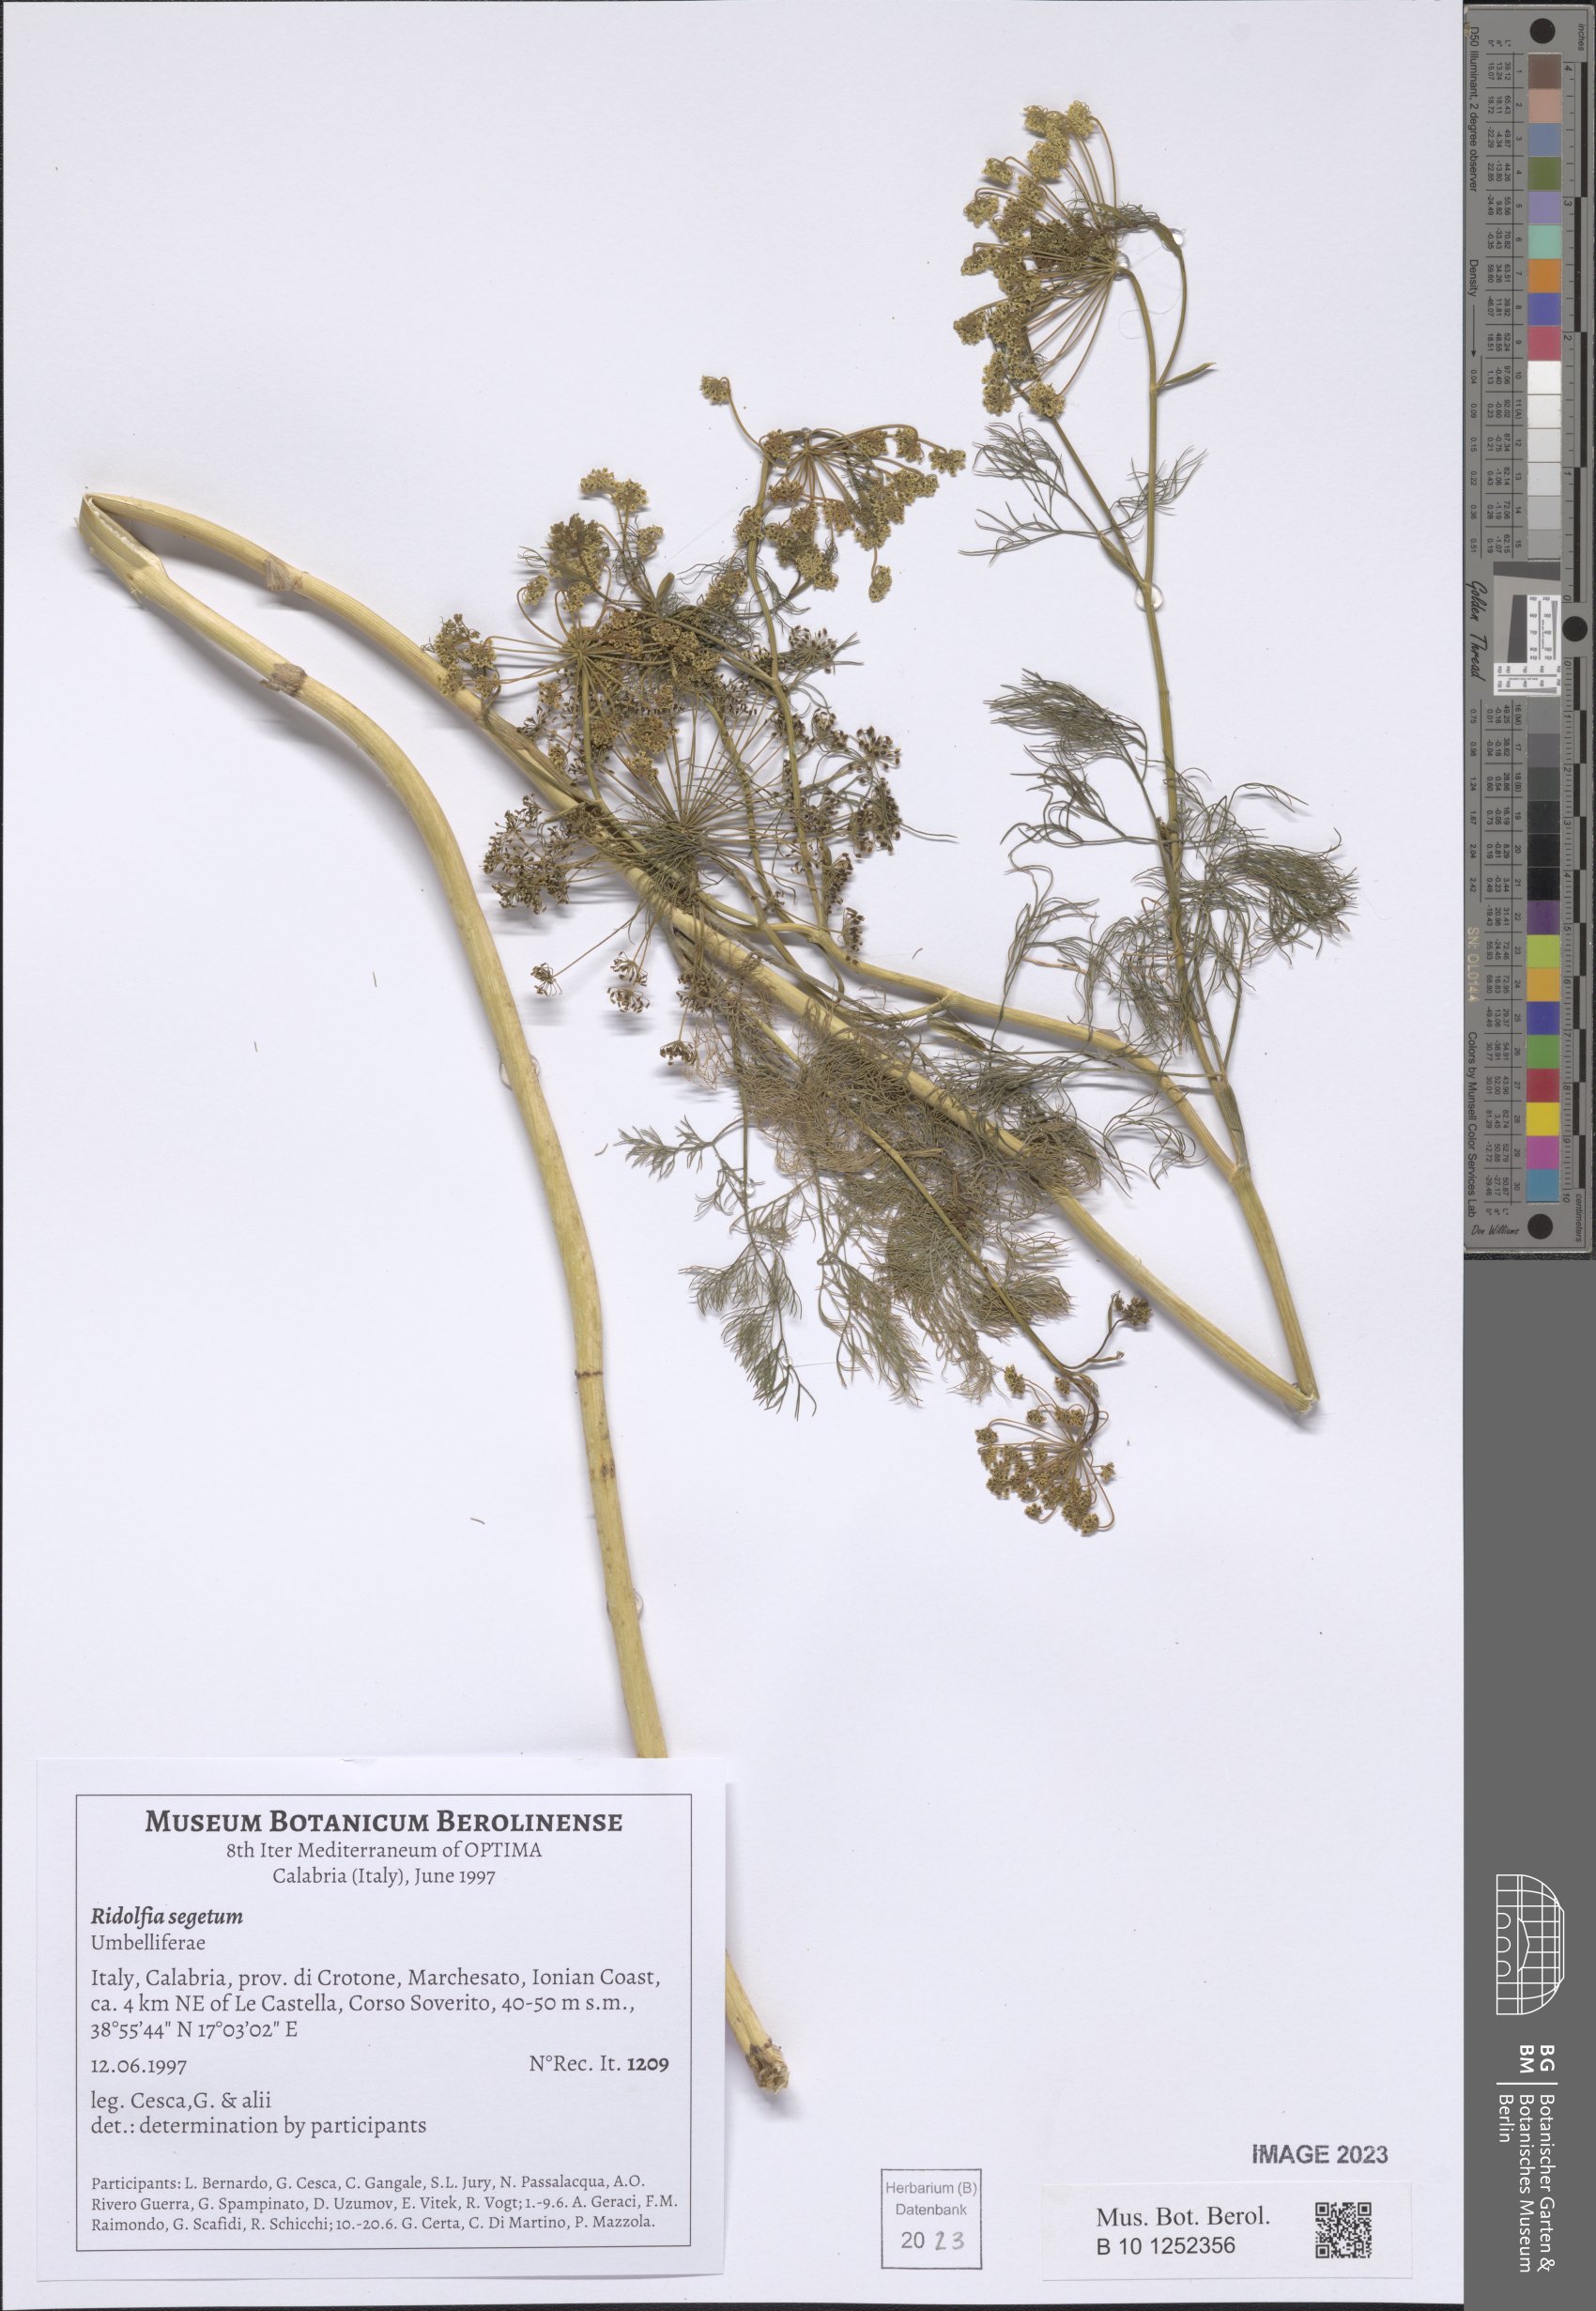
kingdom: Plantae
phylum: Tracheophyta
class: Magnoliopsida
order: Apiales
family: Apiaceae
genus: Anethum
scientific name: Anethum ridolfia
